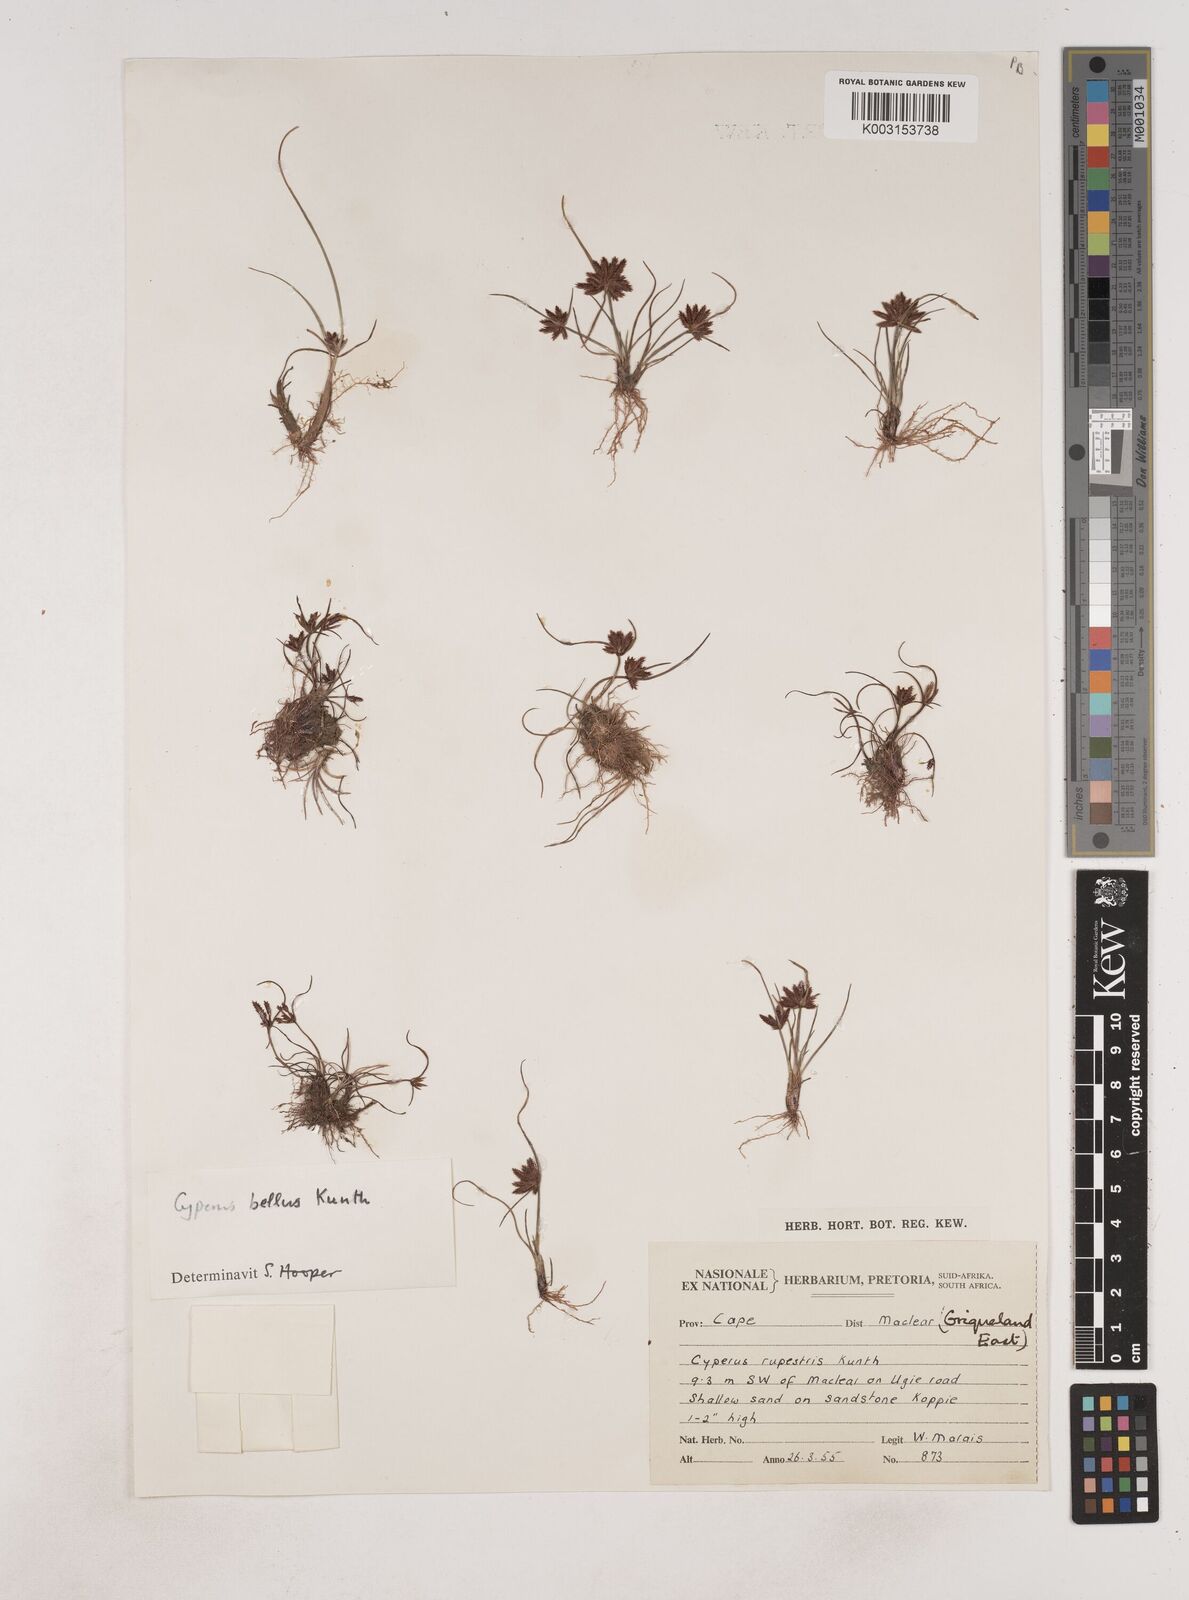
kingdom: Plantae
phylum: Tracheophyta
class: Liliopsida
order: Poales
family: Cyperaceae
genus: Cyperus
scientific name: Cyperus bellus
